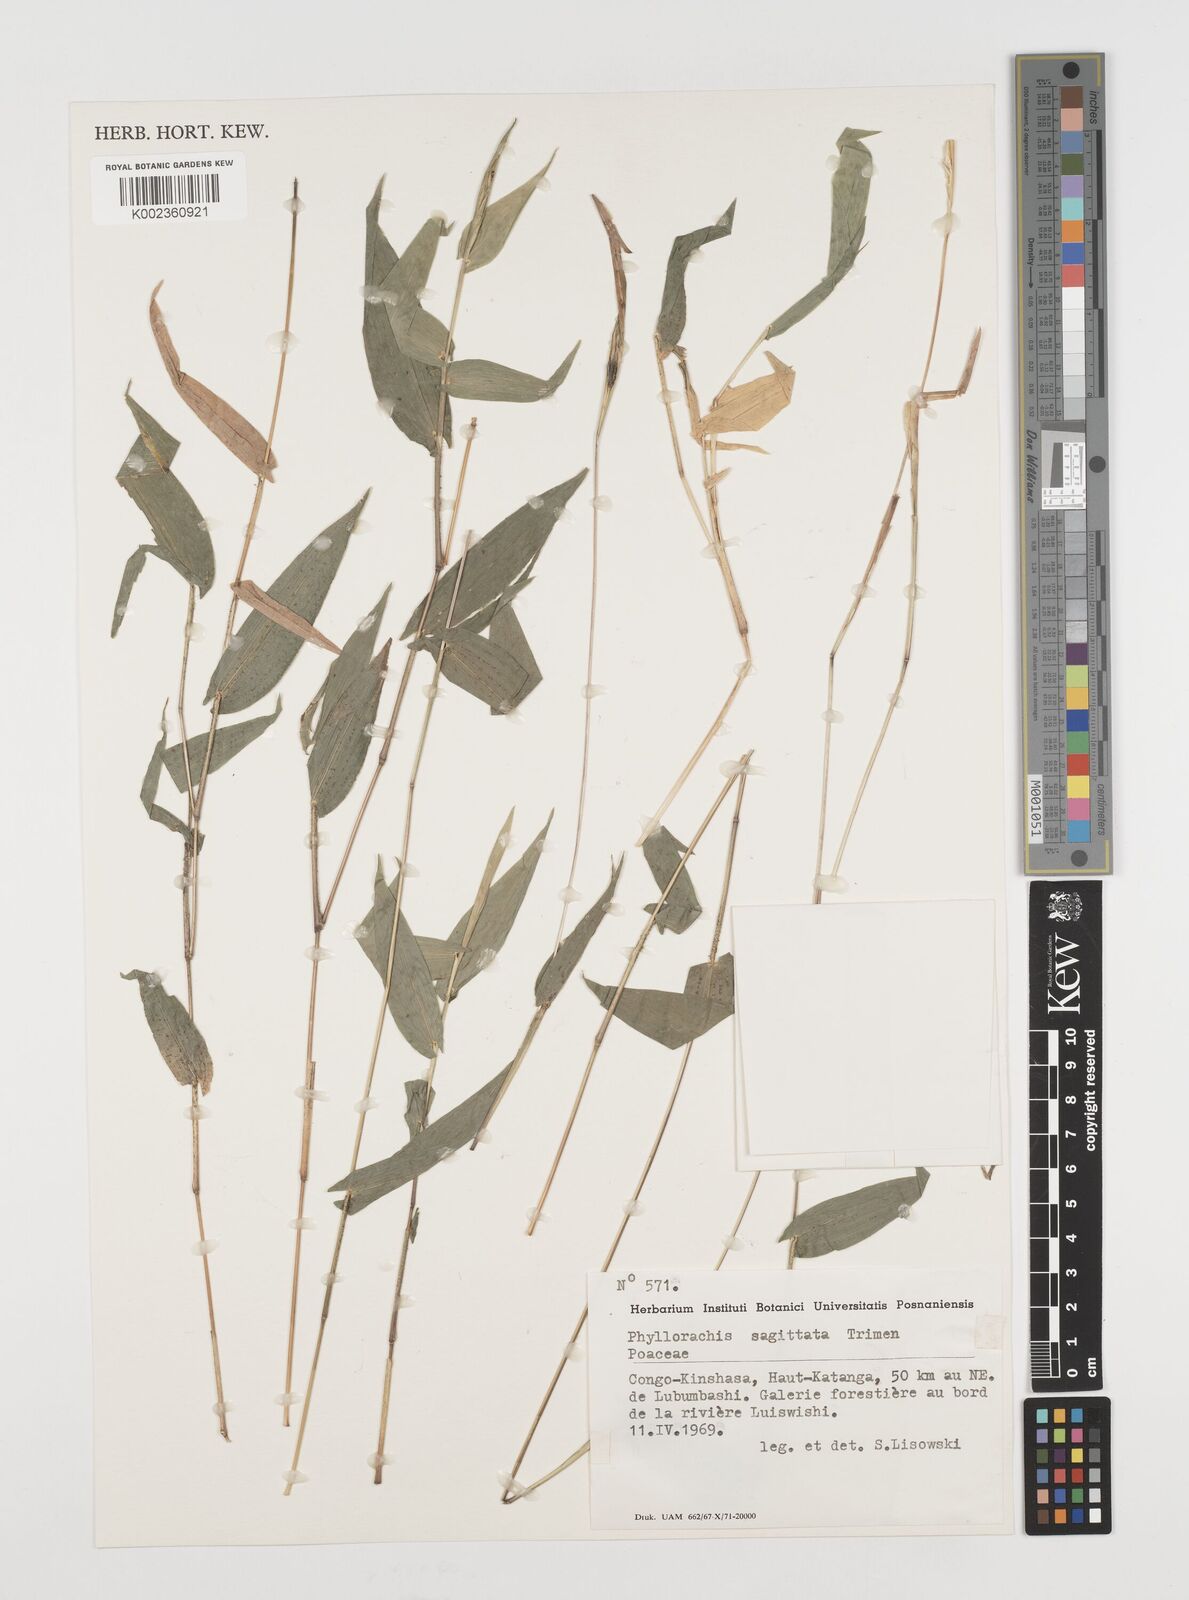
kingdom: Plantae
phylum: Tracheophyta
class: Liliopsida
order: Poales
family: Poaceae
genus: Phyllorachis
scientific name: Phyllorachis sagittata
